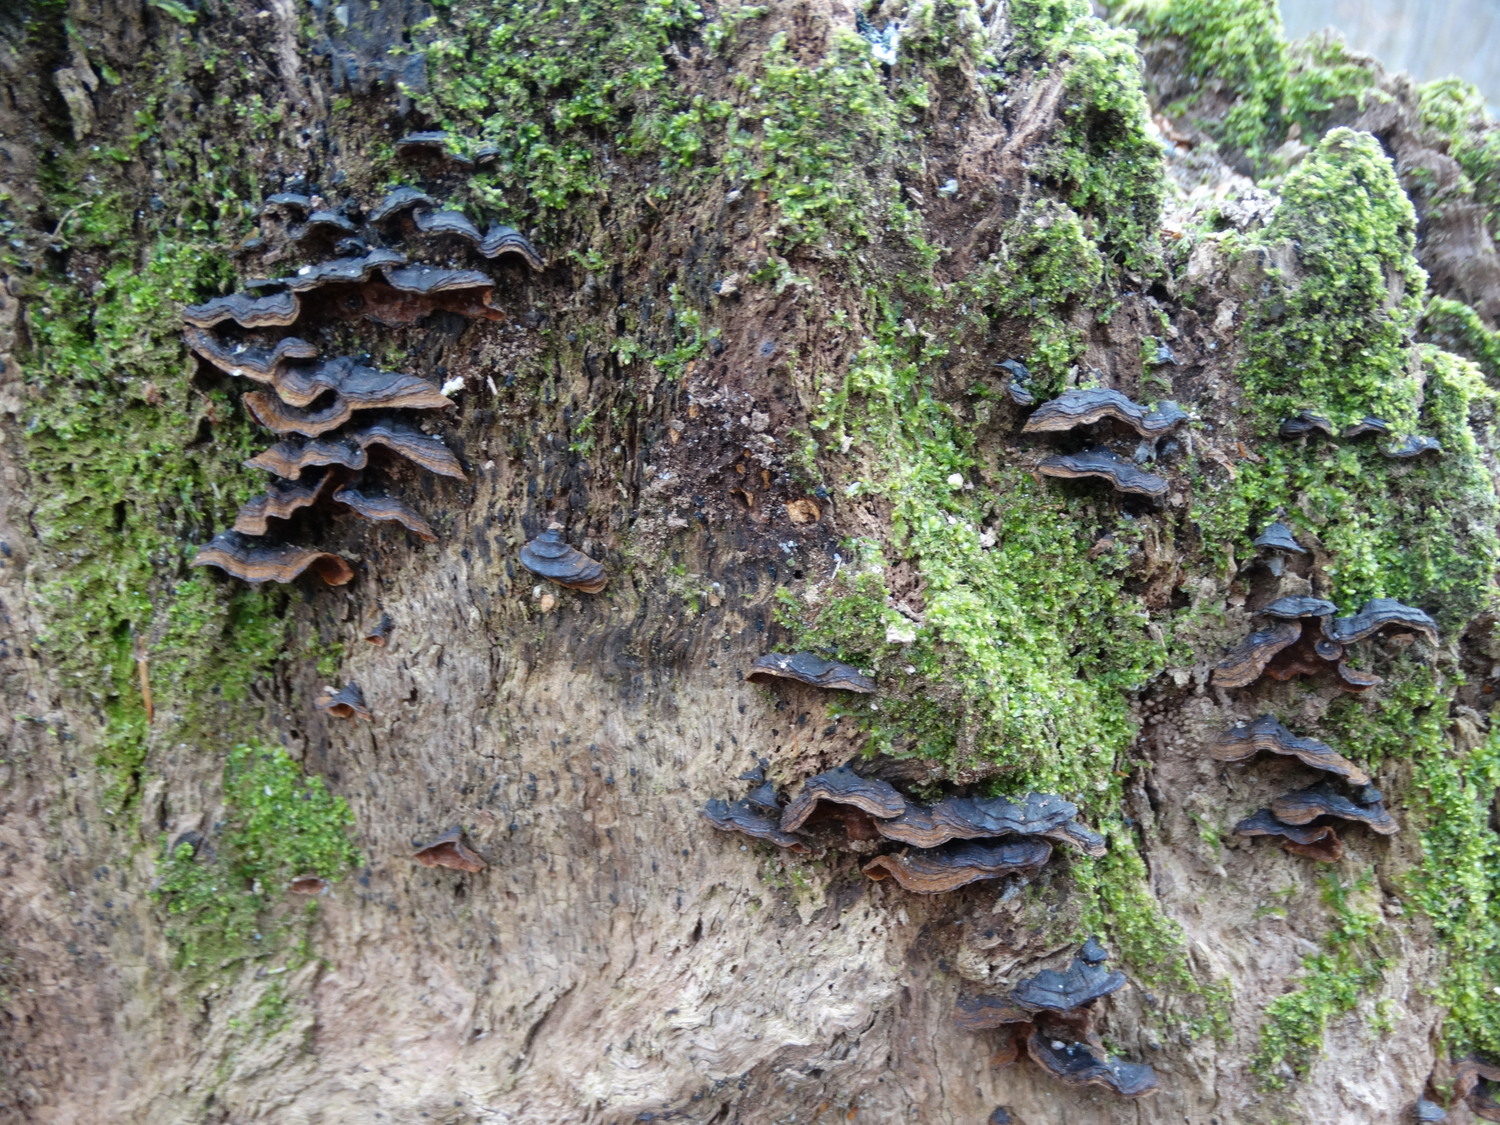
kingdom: Fungi
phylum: Basidiomycota
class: Agaricomycetes
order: Hymenochaetales
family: Hymenochaetaceae
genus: Hymenochaete
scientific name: Hymenochaete rubiginosa
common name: stiv ruslædersvamp
